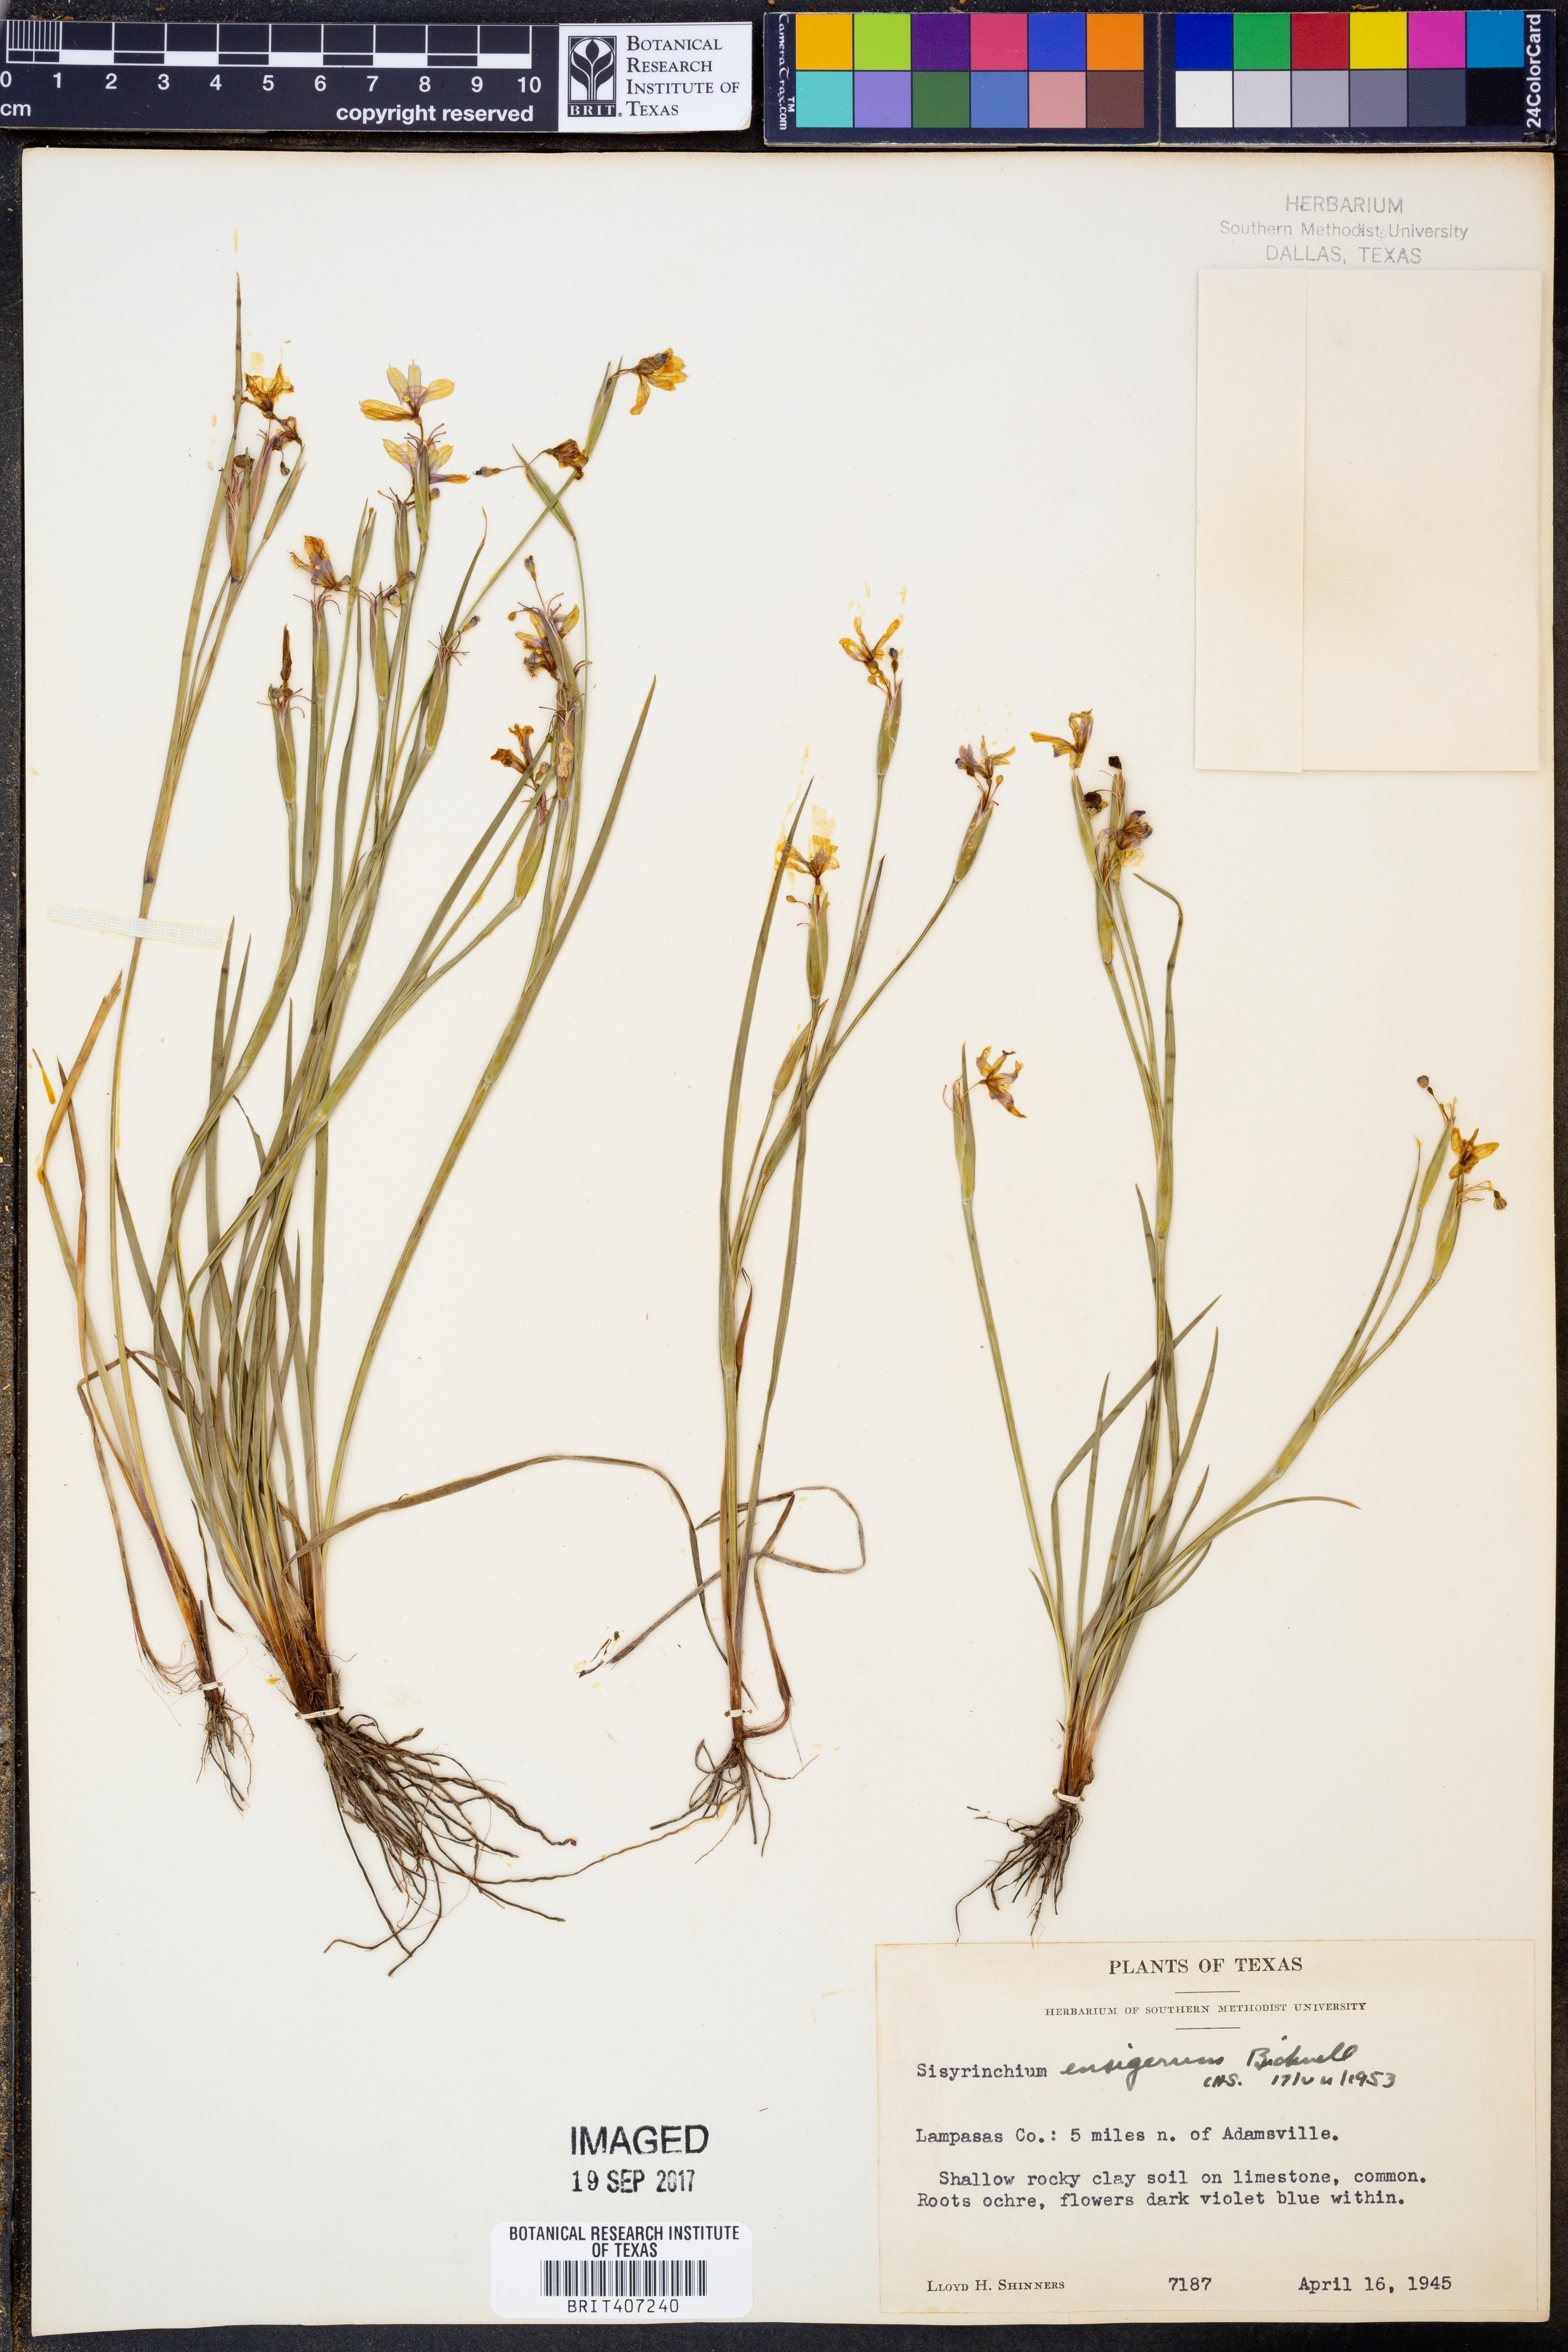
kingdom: Plantae
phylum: Tracheophyta
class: Liliopsida
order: Asparagales
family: Iridaceae
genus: Sisyrinchium
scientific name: Sisyrinchium ensigerum
